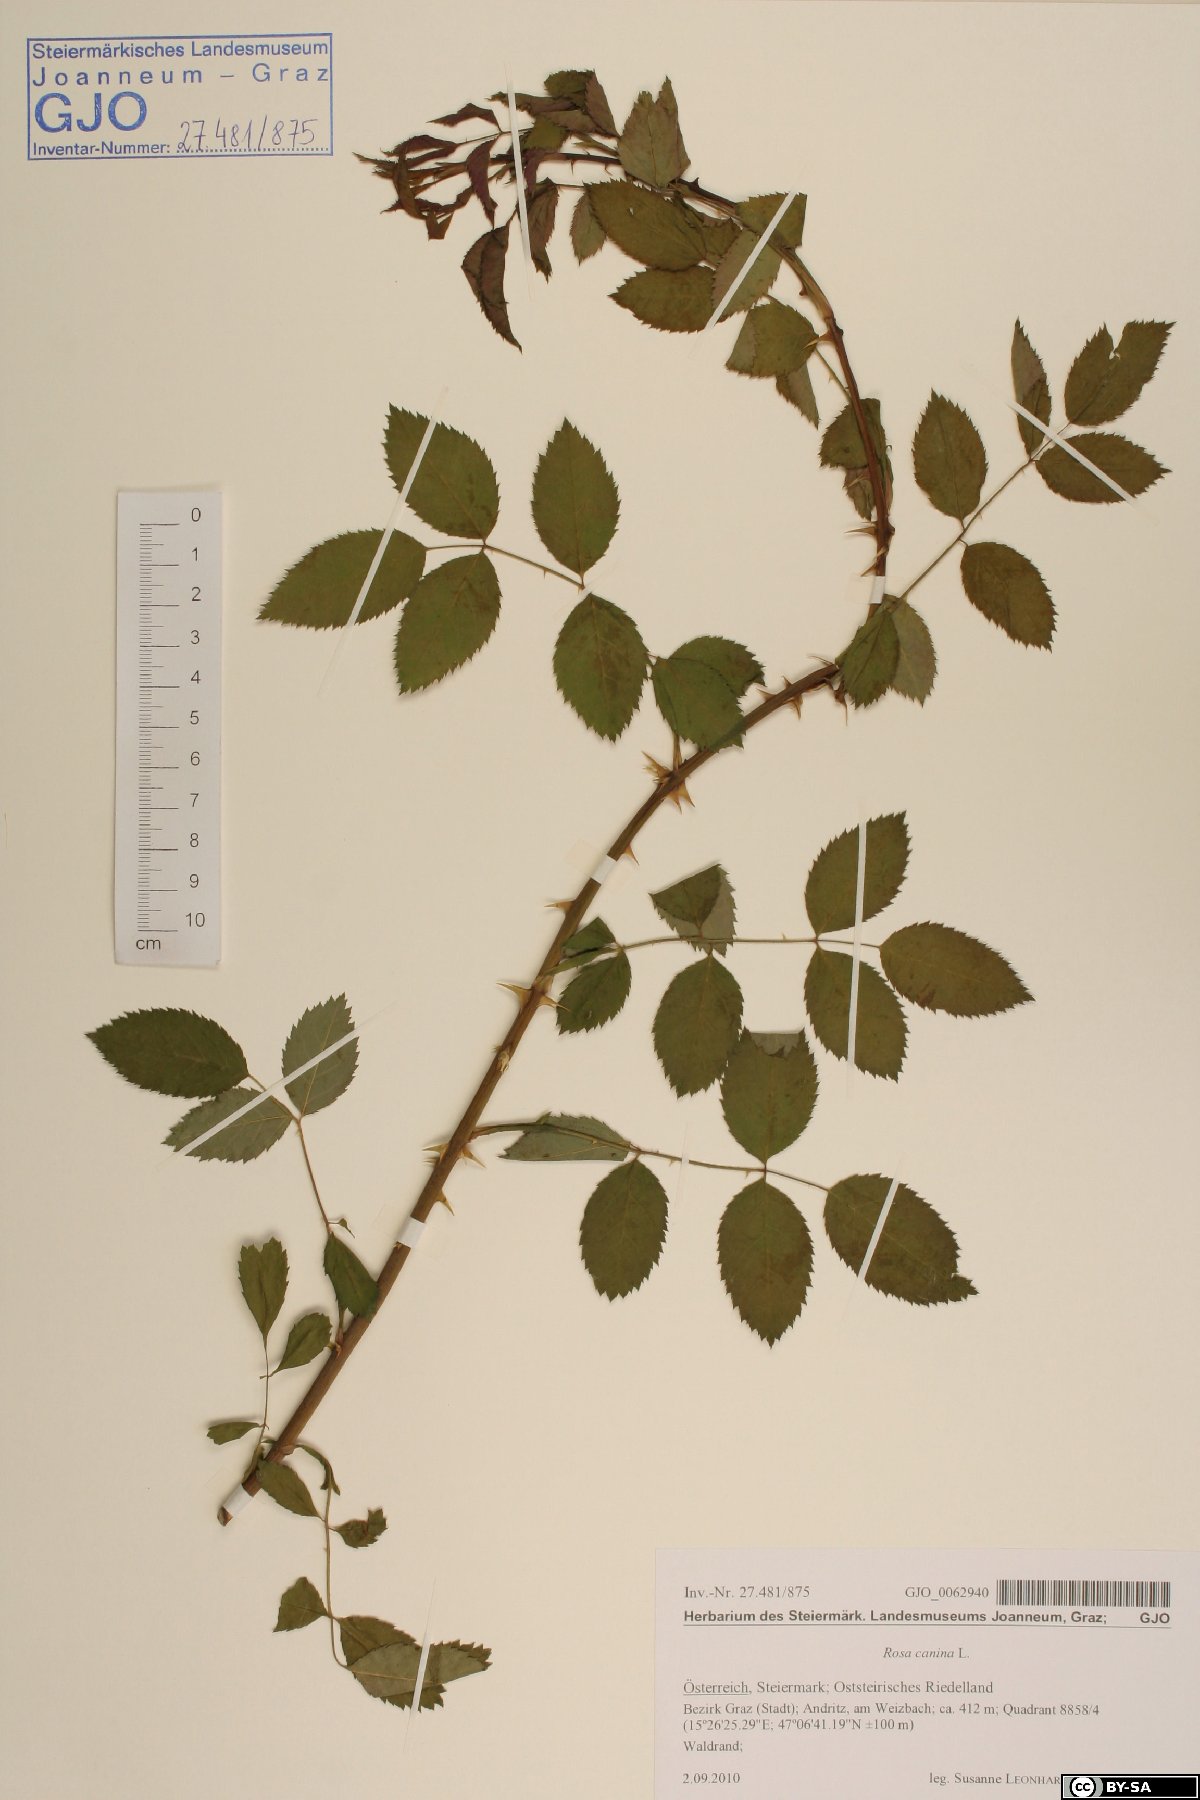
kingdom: Plantae
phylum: Tracheophyta
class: Magnoliopsida
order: Rosales
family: Rosaceae
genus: Rosa
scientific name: Rosa canina
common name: Dog rose
